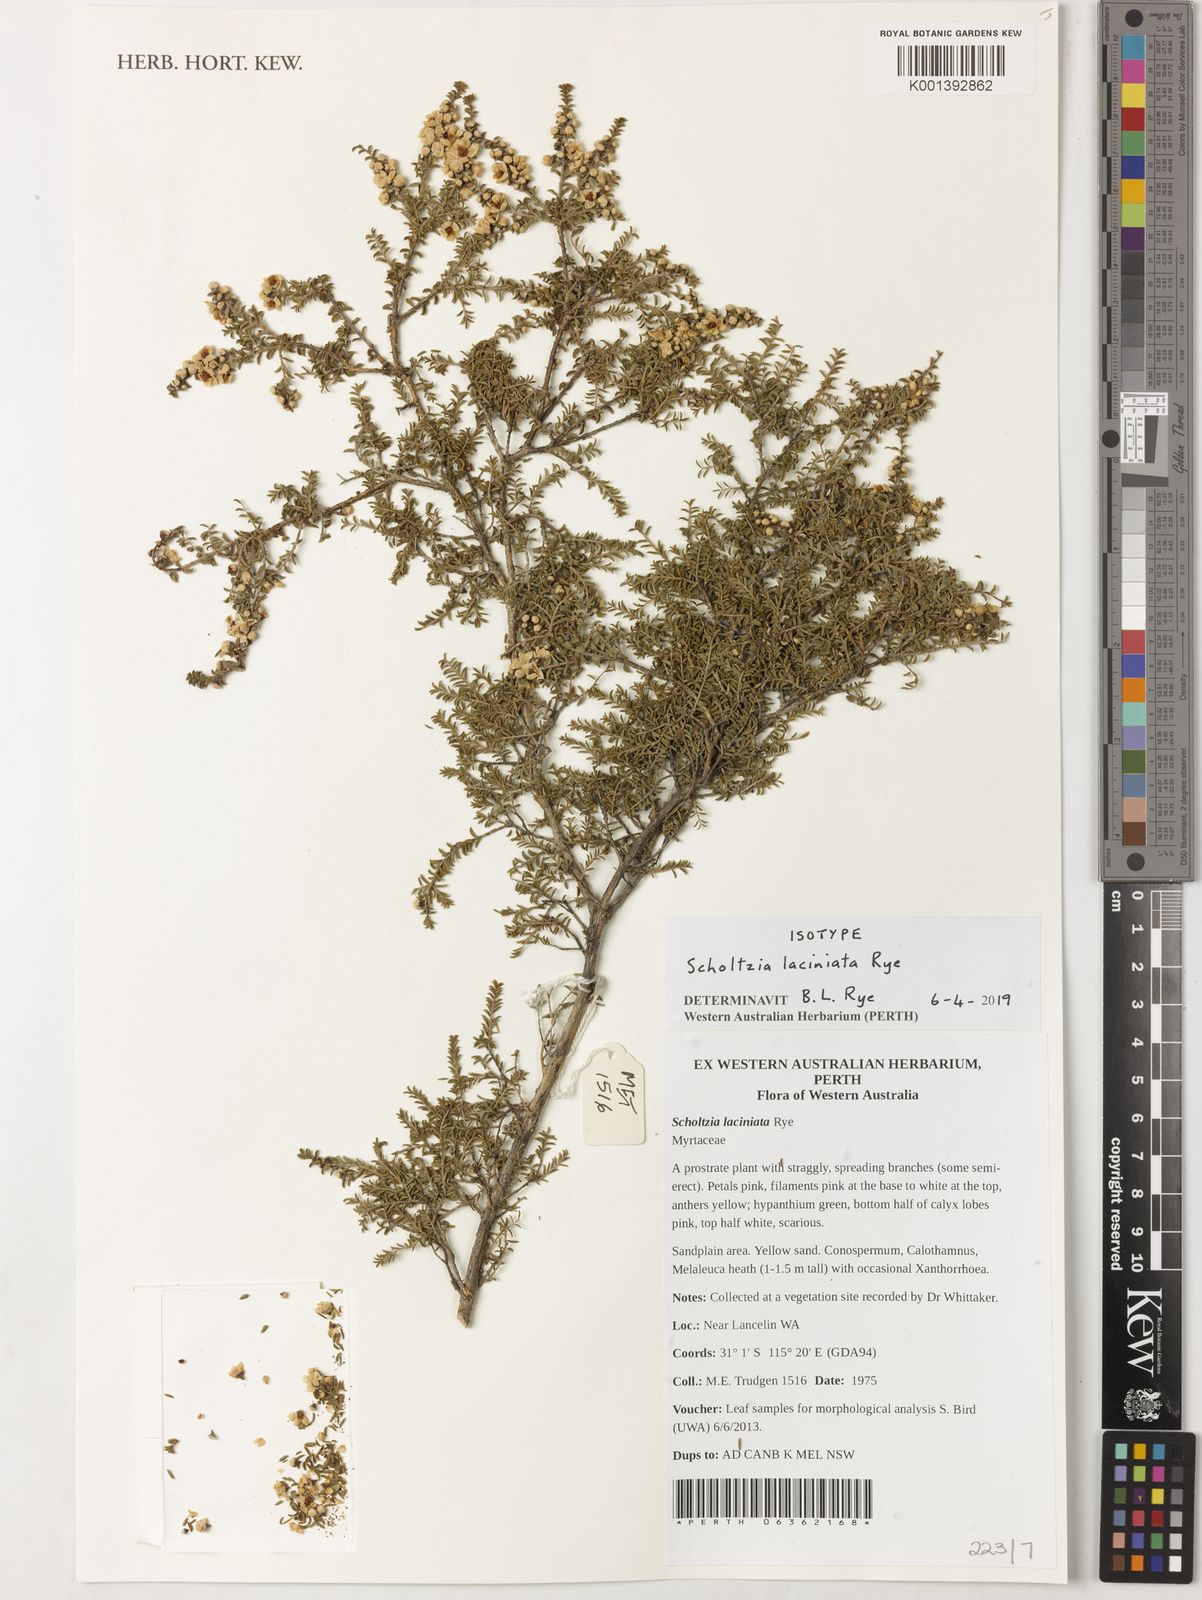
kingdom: Plantae
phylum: Tracheophyta
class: Magnoliopsida
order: Myrtales
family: Myrtaceae
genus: Scholtzia
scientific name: Scholtzia
